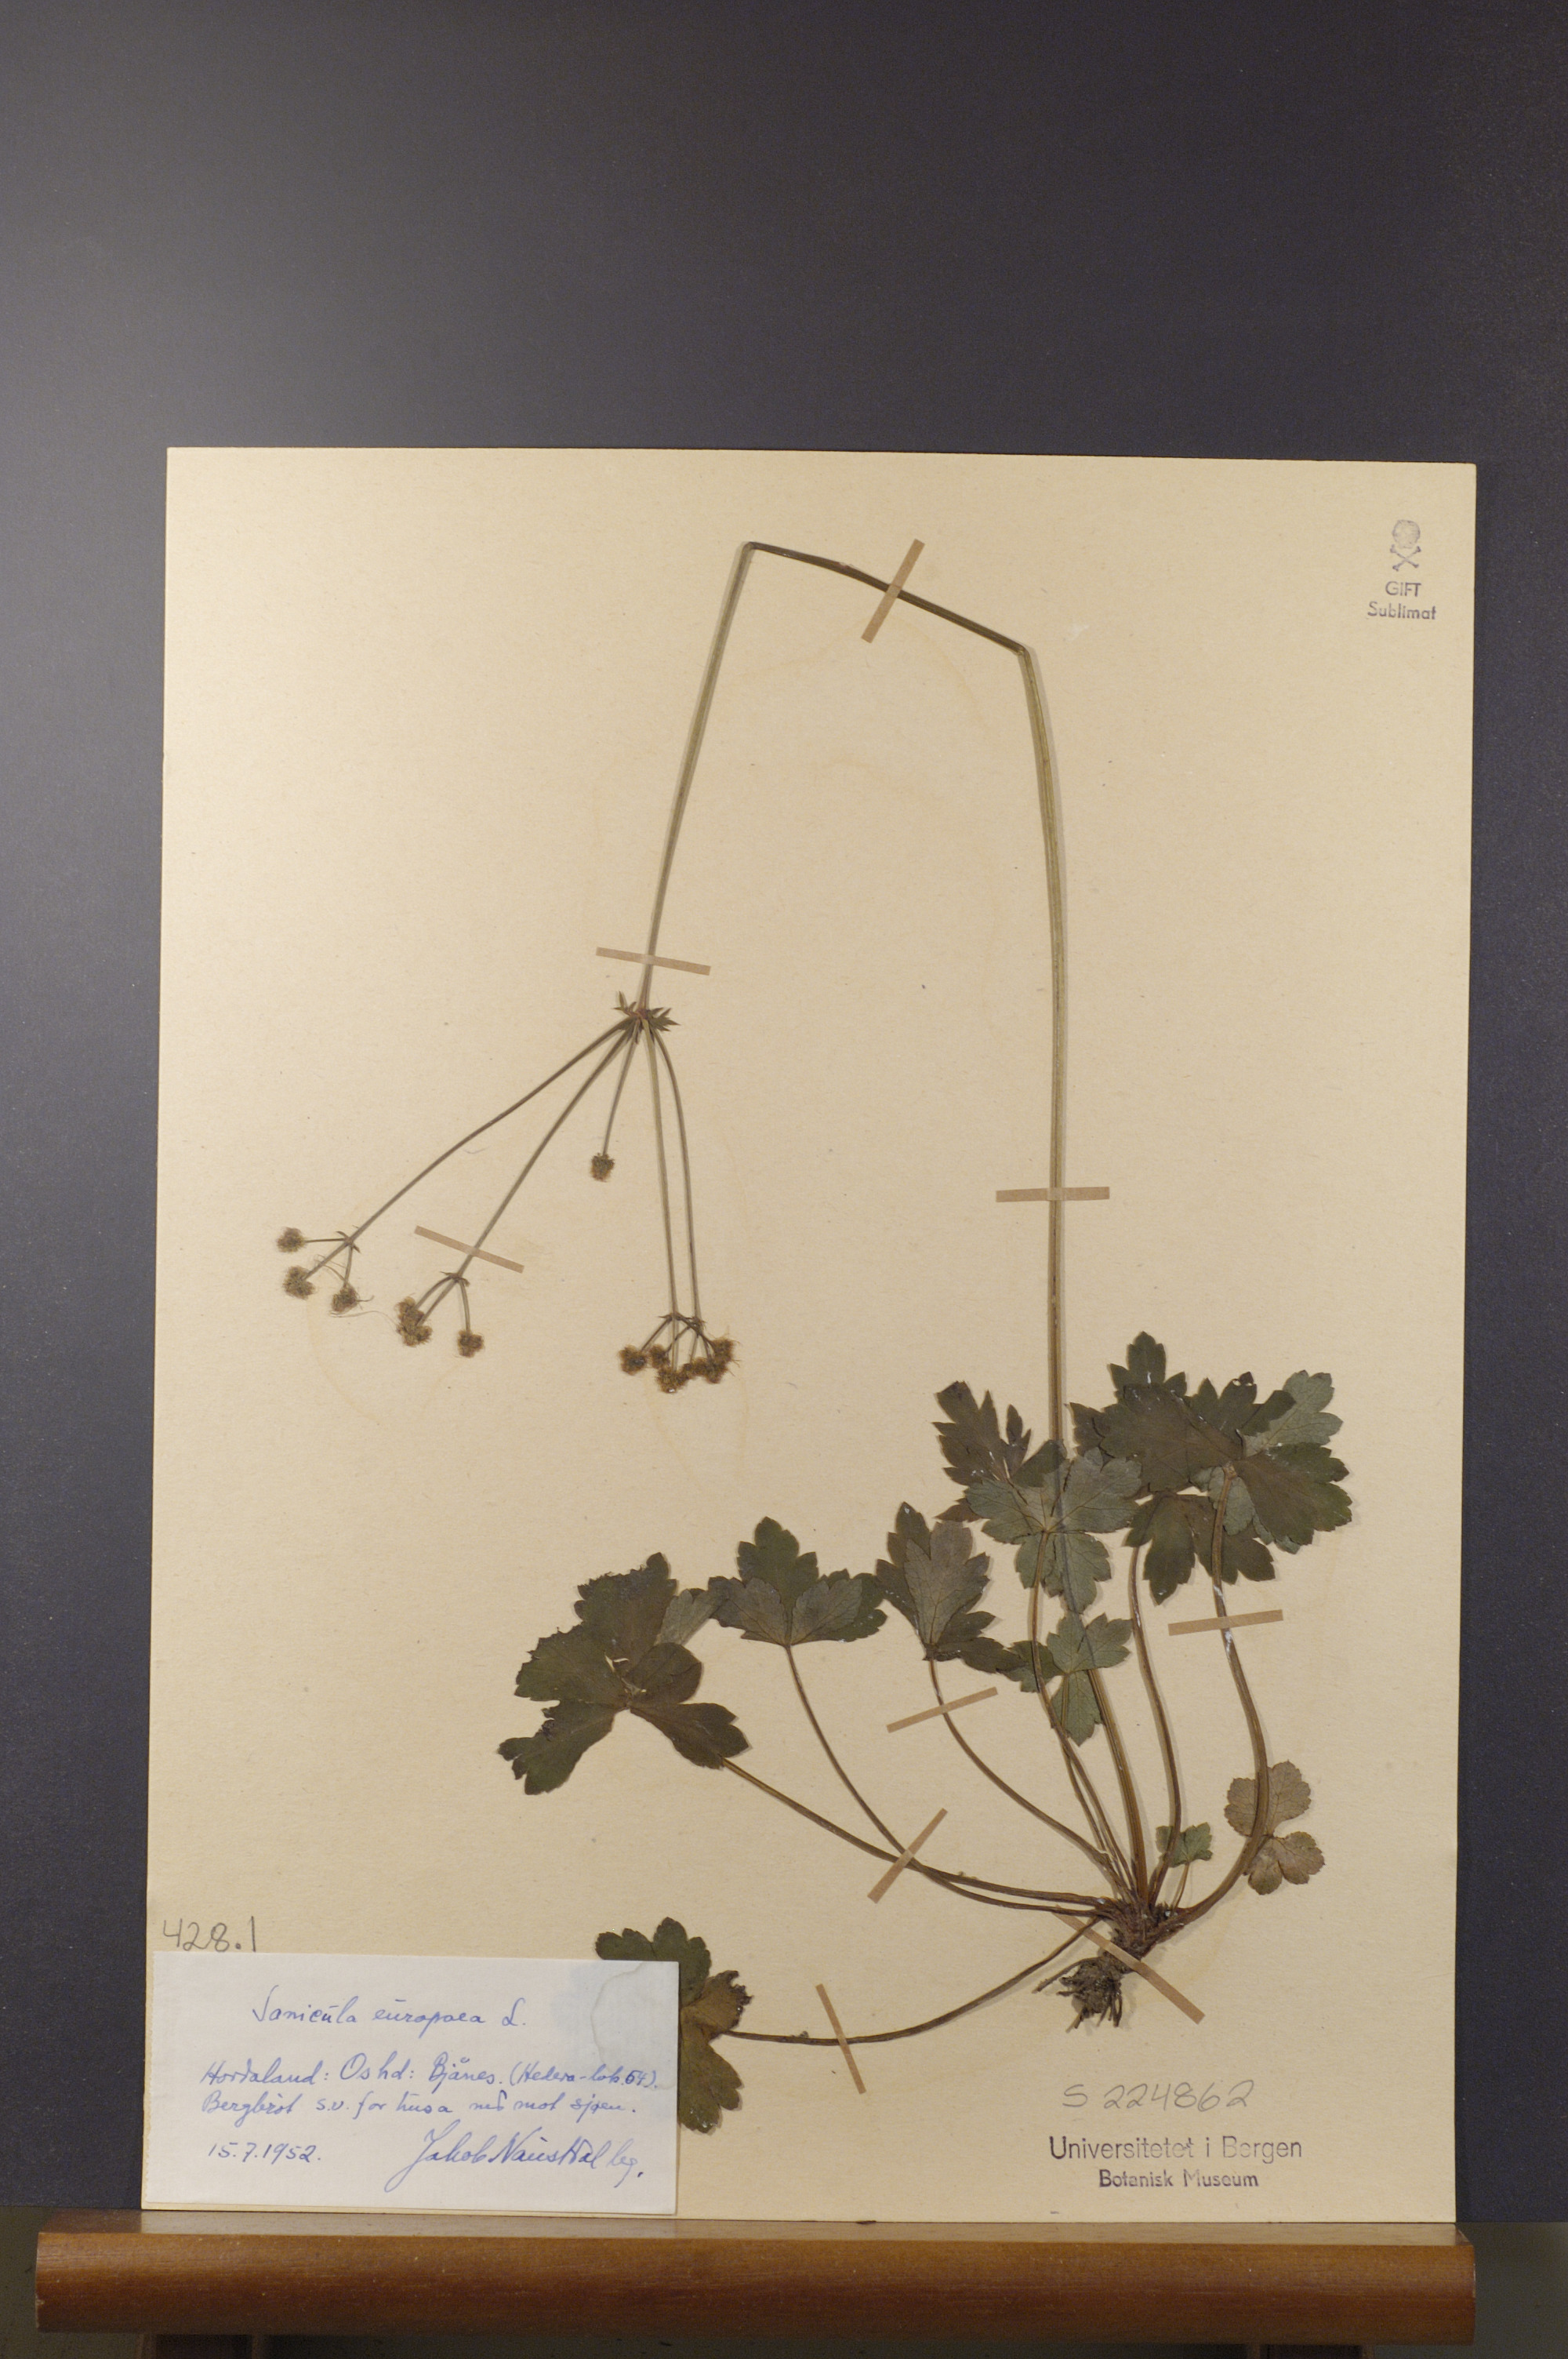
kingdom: Plantae
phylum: Tracheophyta
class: Magnoliopsida
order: Apiales
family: Apiaceae
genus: Sanicula
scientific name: Sanicula europaea
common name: Sanicle
